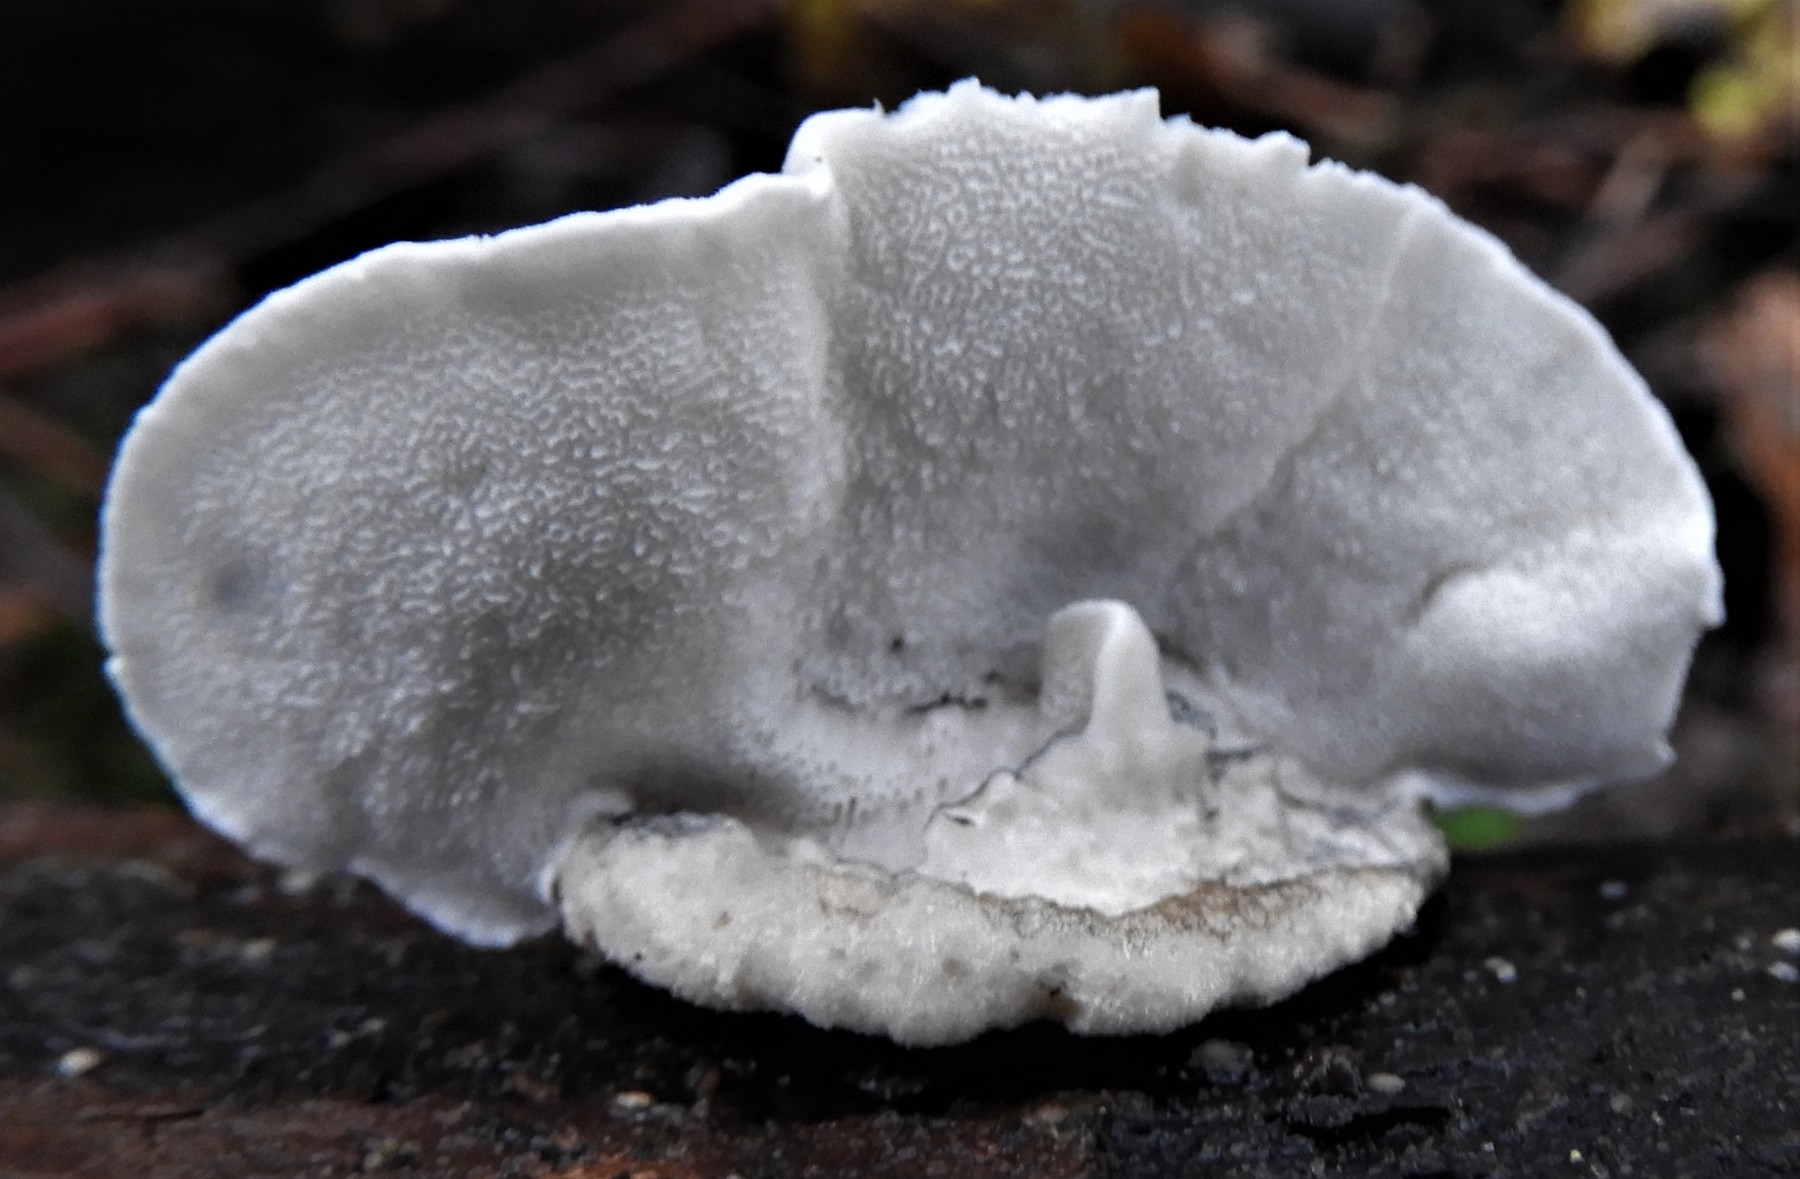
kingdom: Fungi
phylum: Basidiomycota
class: Agaricomycetes
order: Polyporales
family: Dacryobolaceae
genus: Postia
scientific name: Postia
